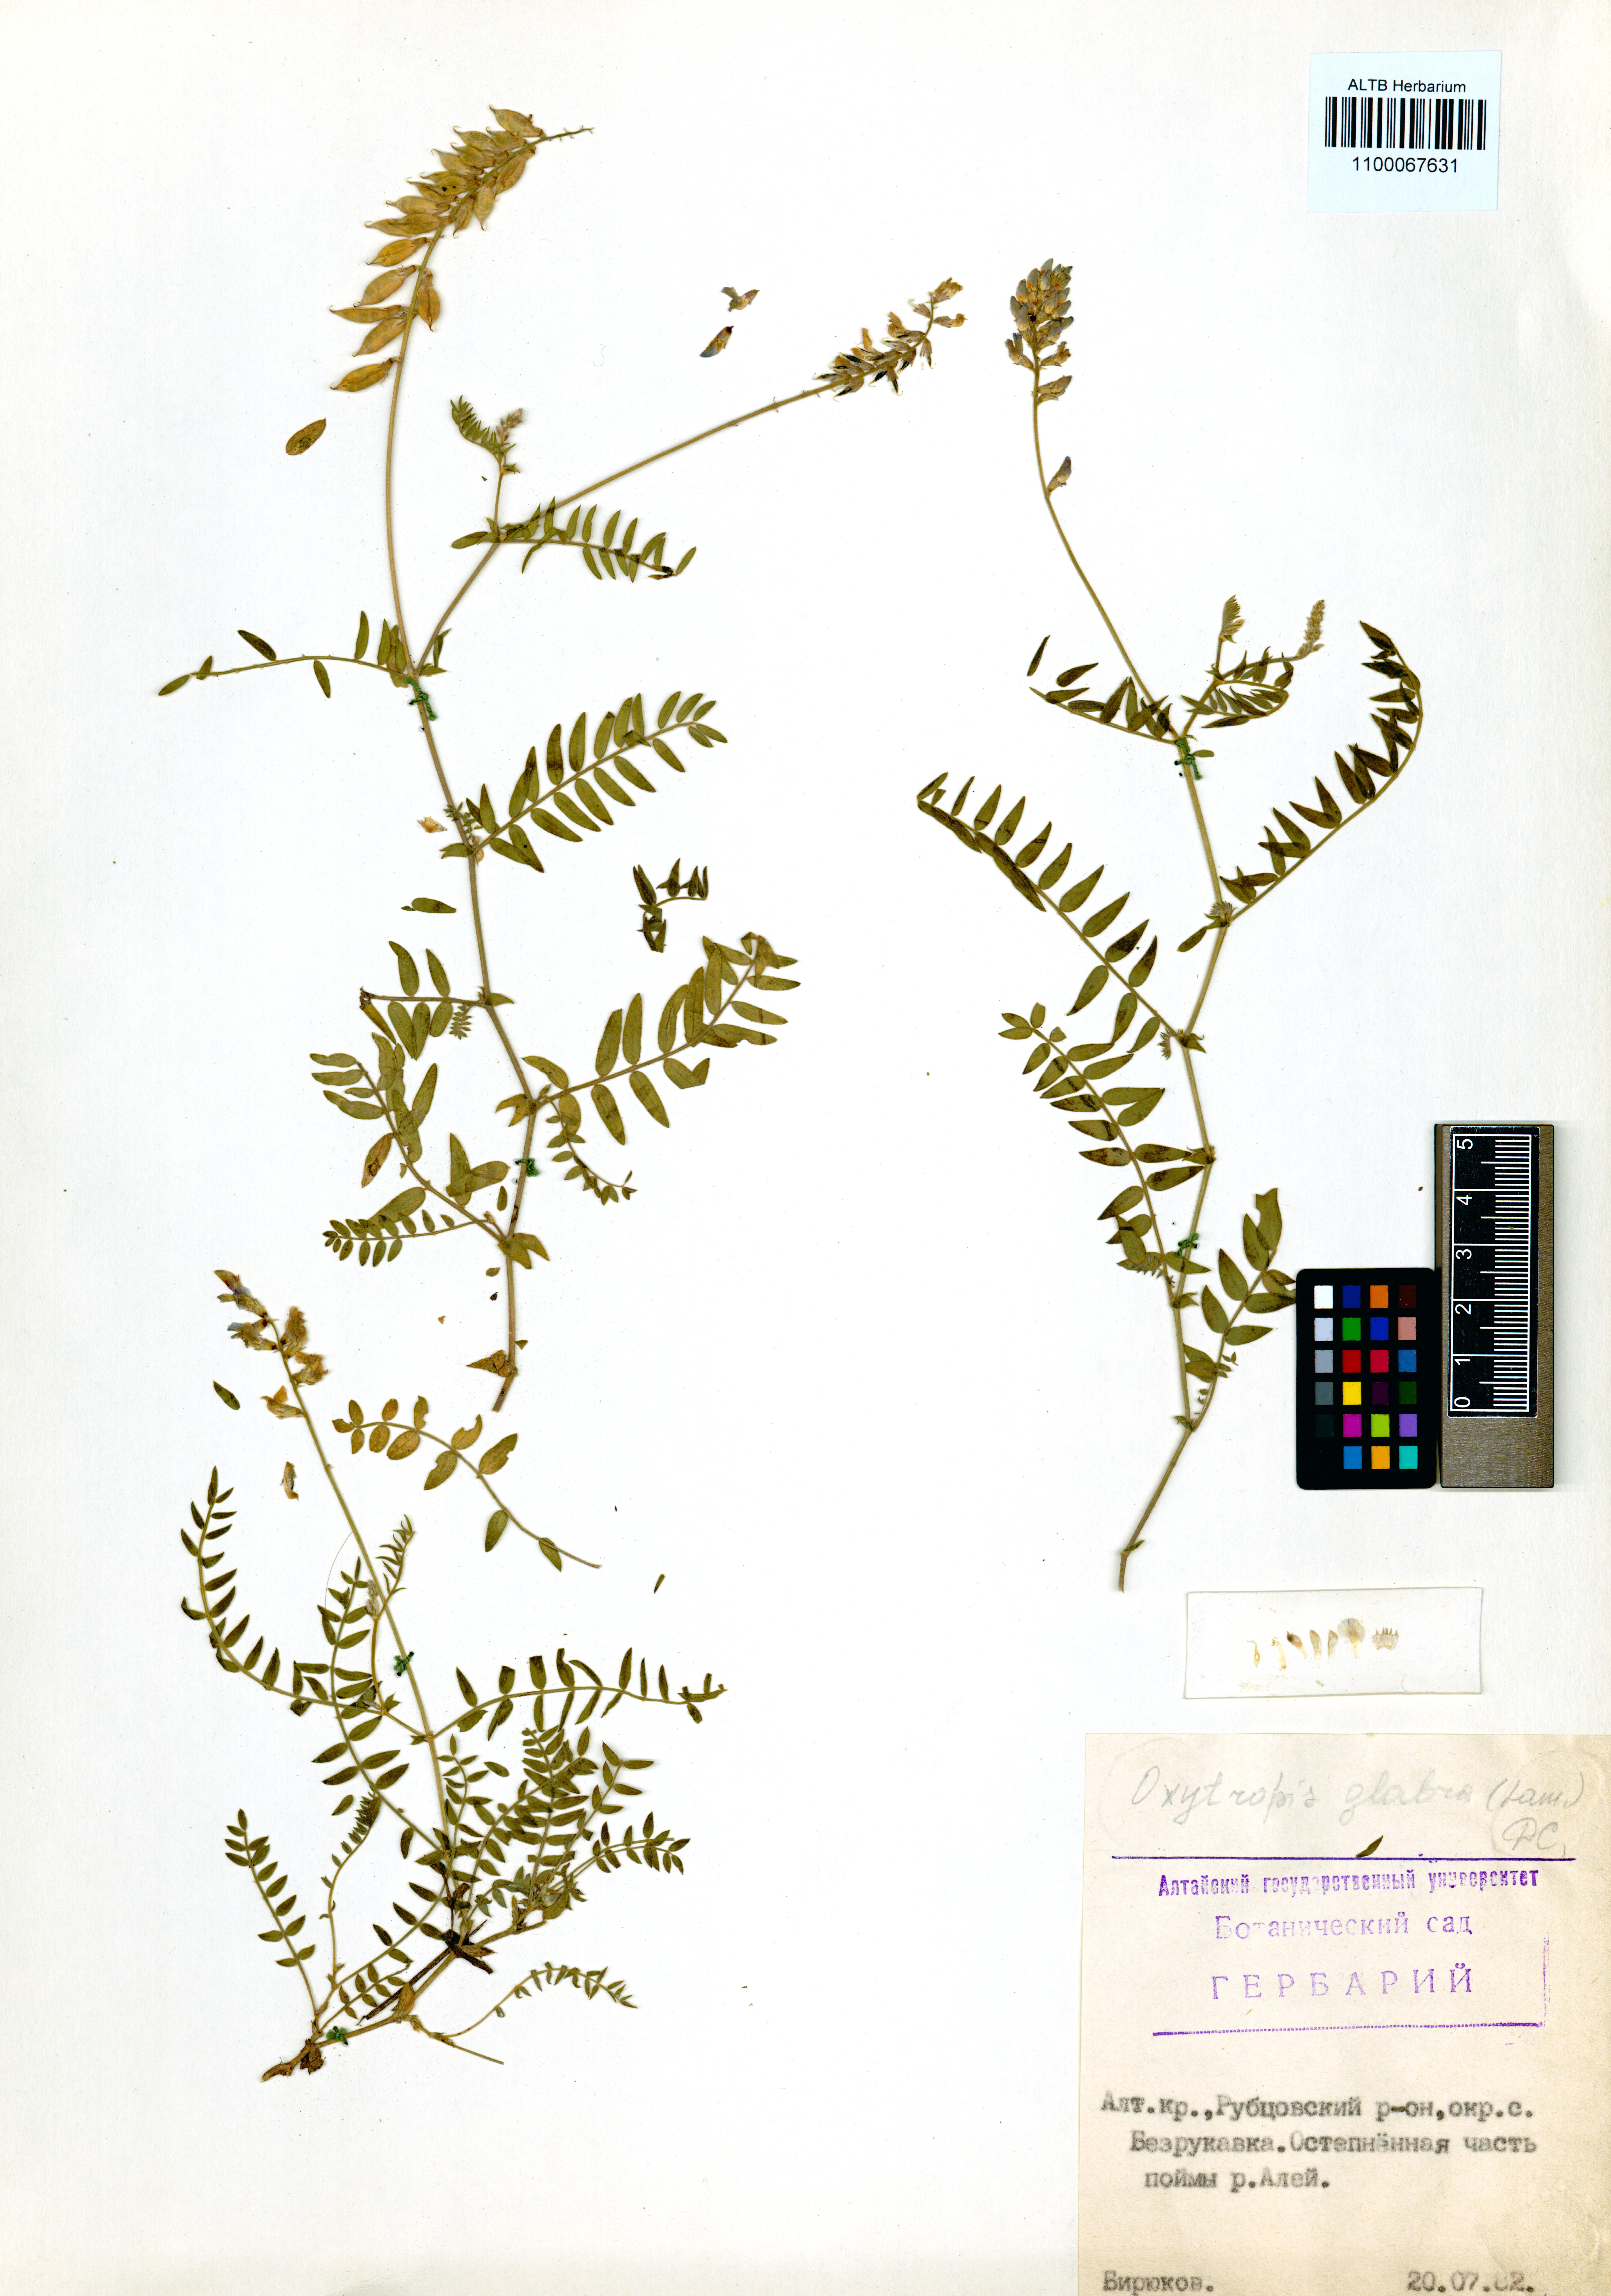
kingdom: Plantae
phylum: Tracheophyta
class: Magnoliopsida
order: Fabales
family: Fabaceae
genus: Oxytropis
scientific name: Oxytropis glabra
